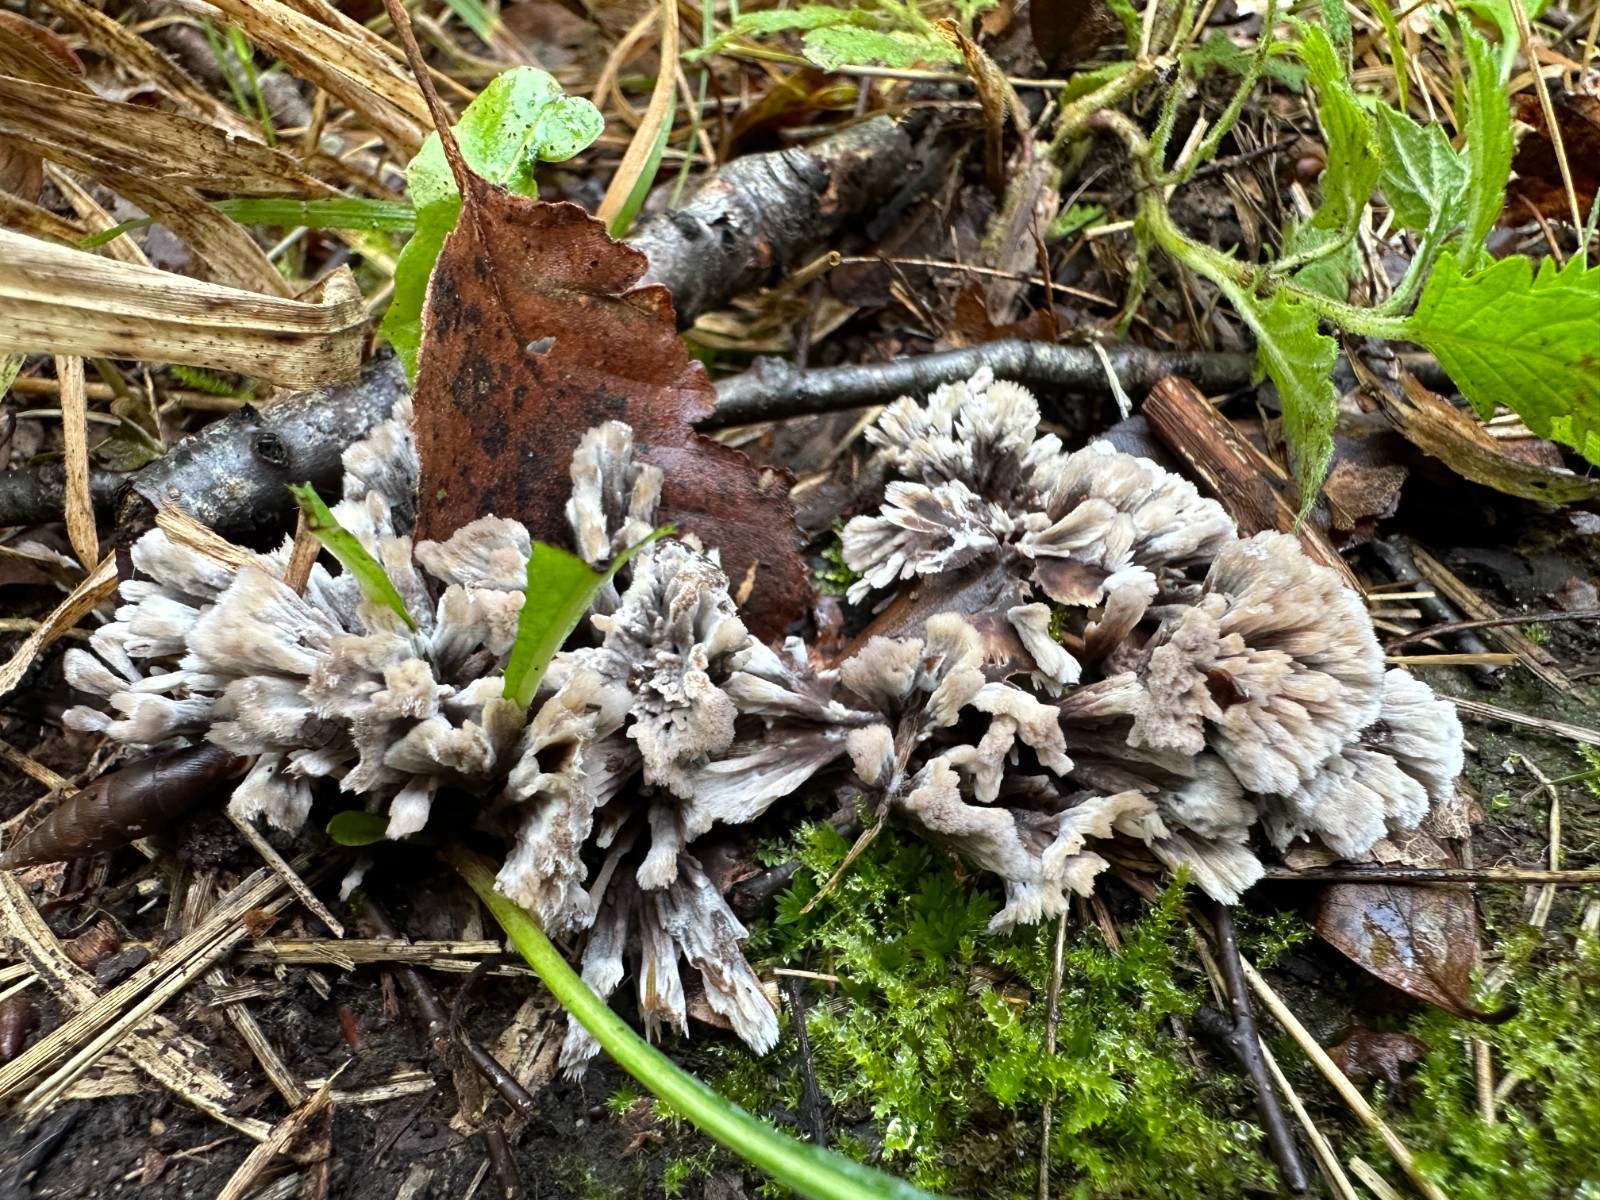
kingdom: Fungi
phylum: Basidiomycota
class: Agaricomycetes
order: Thelephorales
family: Thelephoraceae
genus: Thelephora
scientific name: Thelephora anthocephala
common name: busk-frynsesvamp
